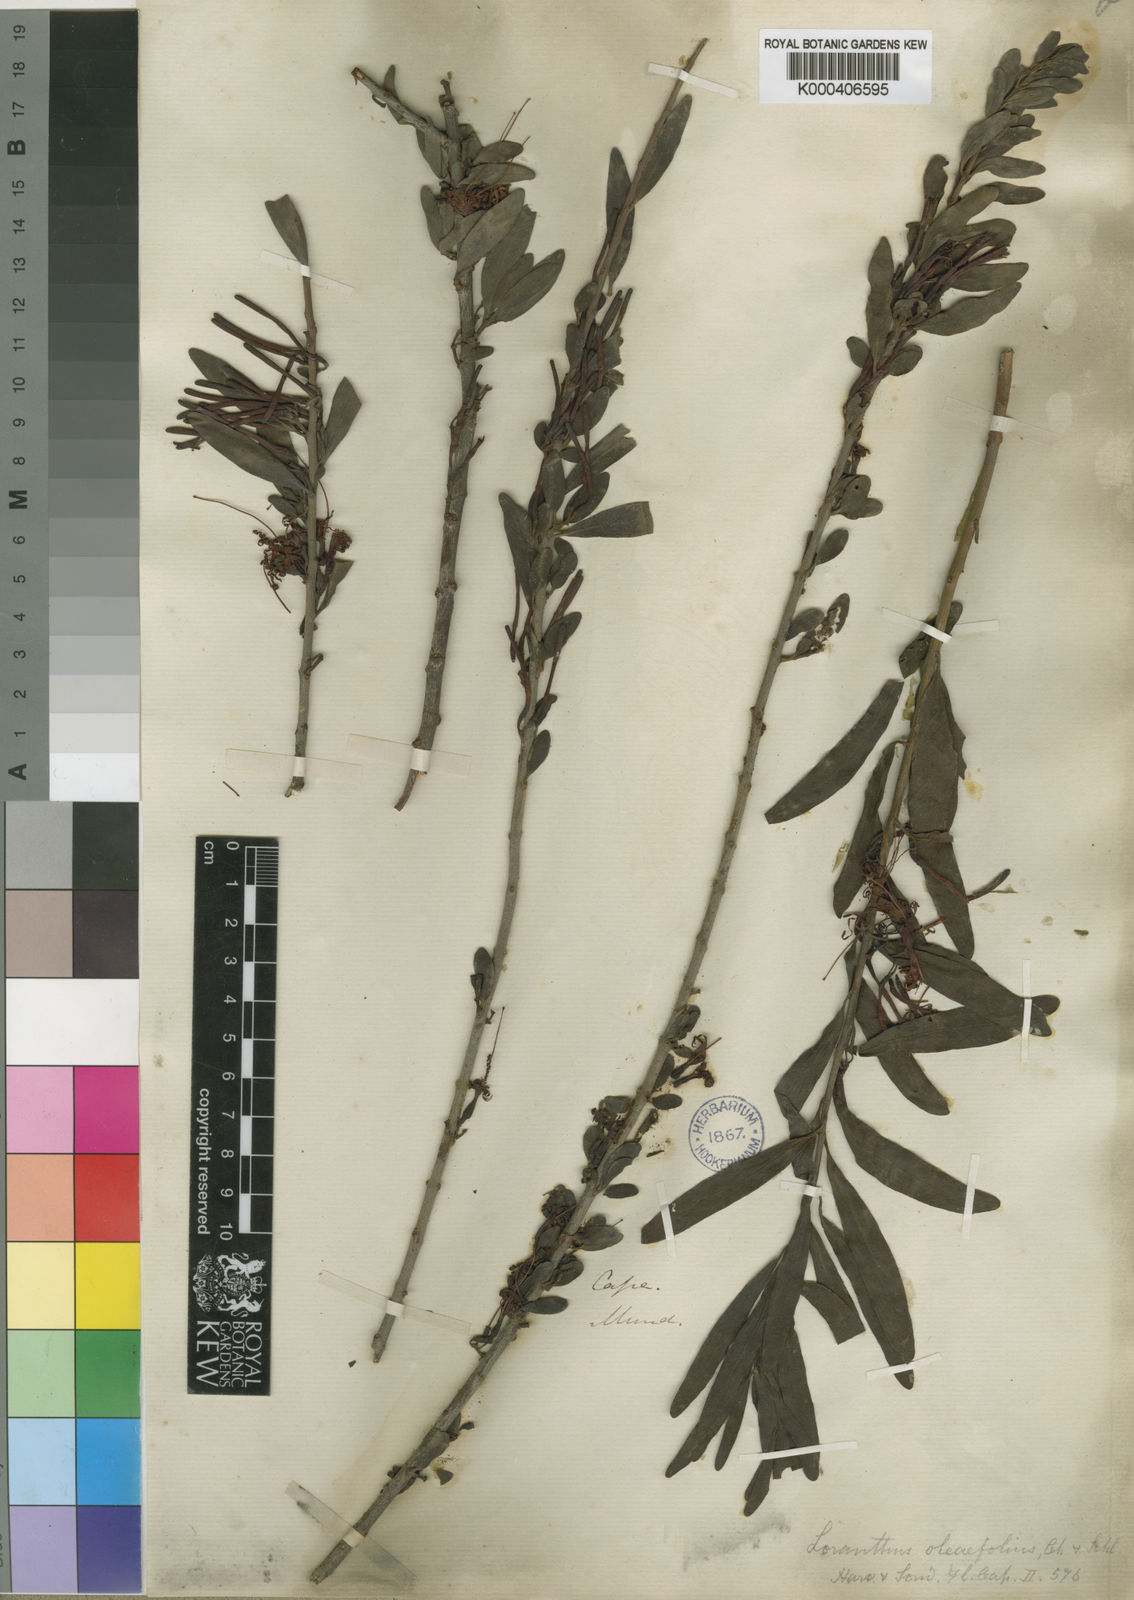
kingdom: Plantae
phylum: Tracheophyta
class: Magnoliopsida
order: Santalales
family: Loranthaceae
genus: Moquiniella
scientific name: Moquiniella rubra
